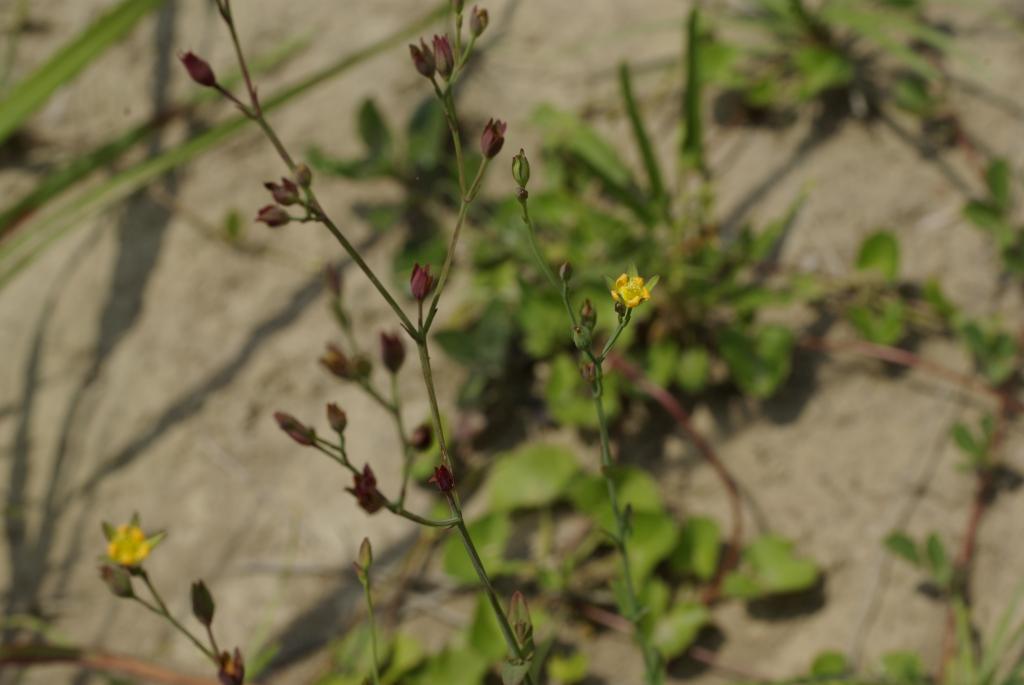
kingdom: Plantae
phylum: Tracheophyta
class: Magnoliopsida
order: Malpighiales
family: Hypericaceae
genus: Hypericum
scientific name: Hypericum japonicum
